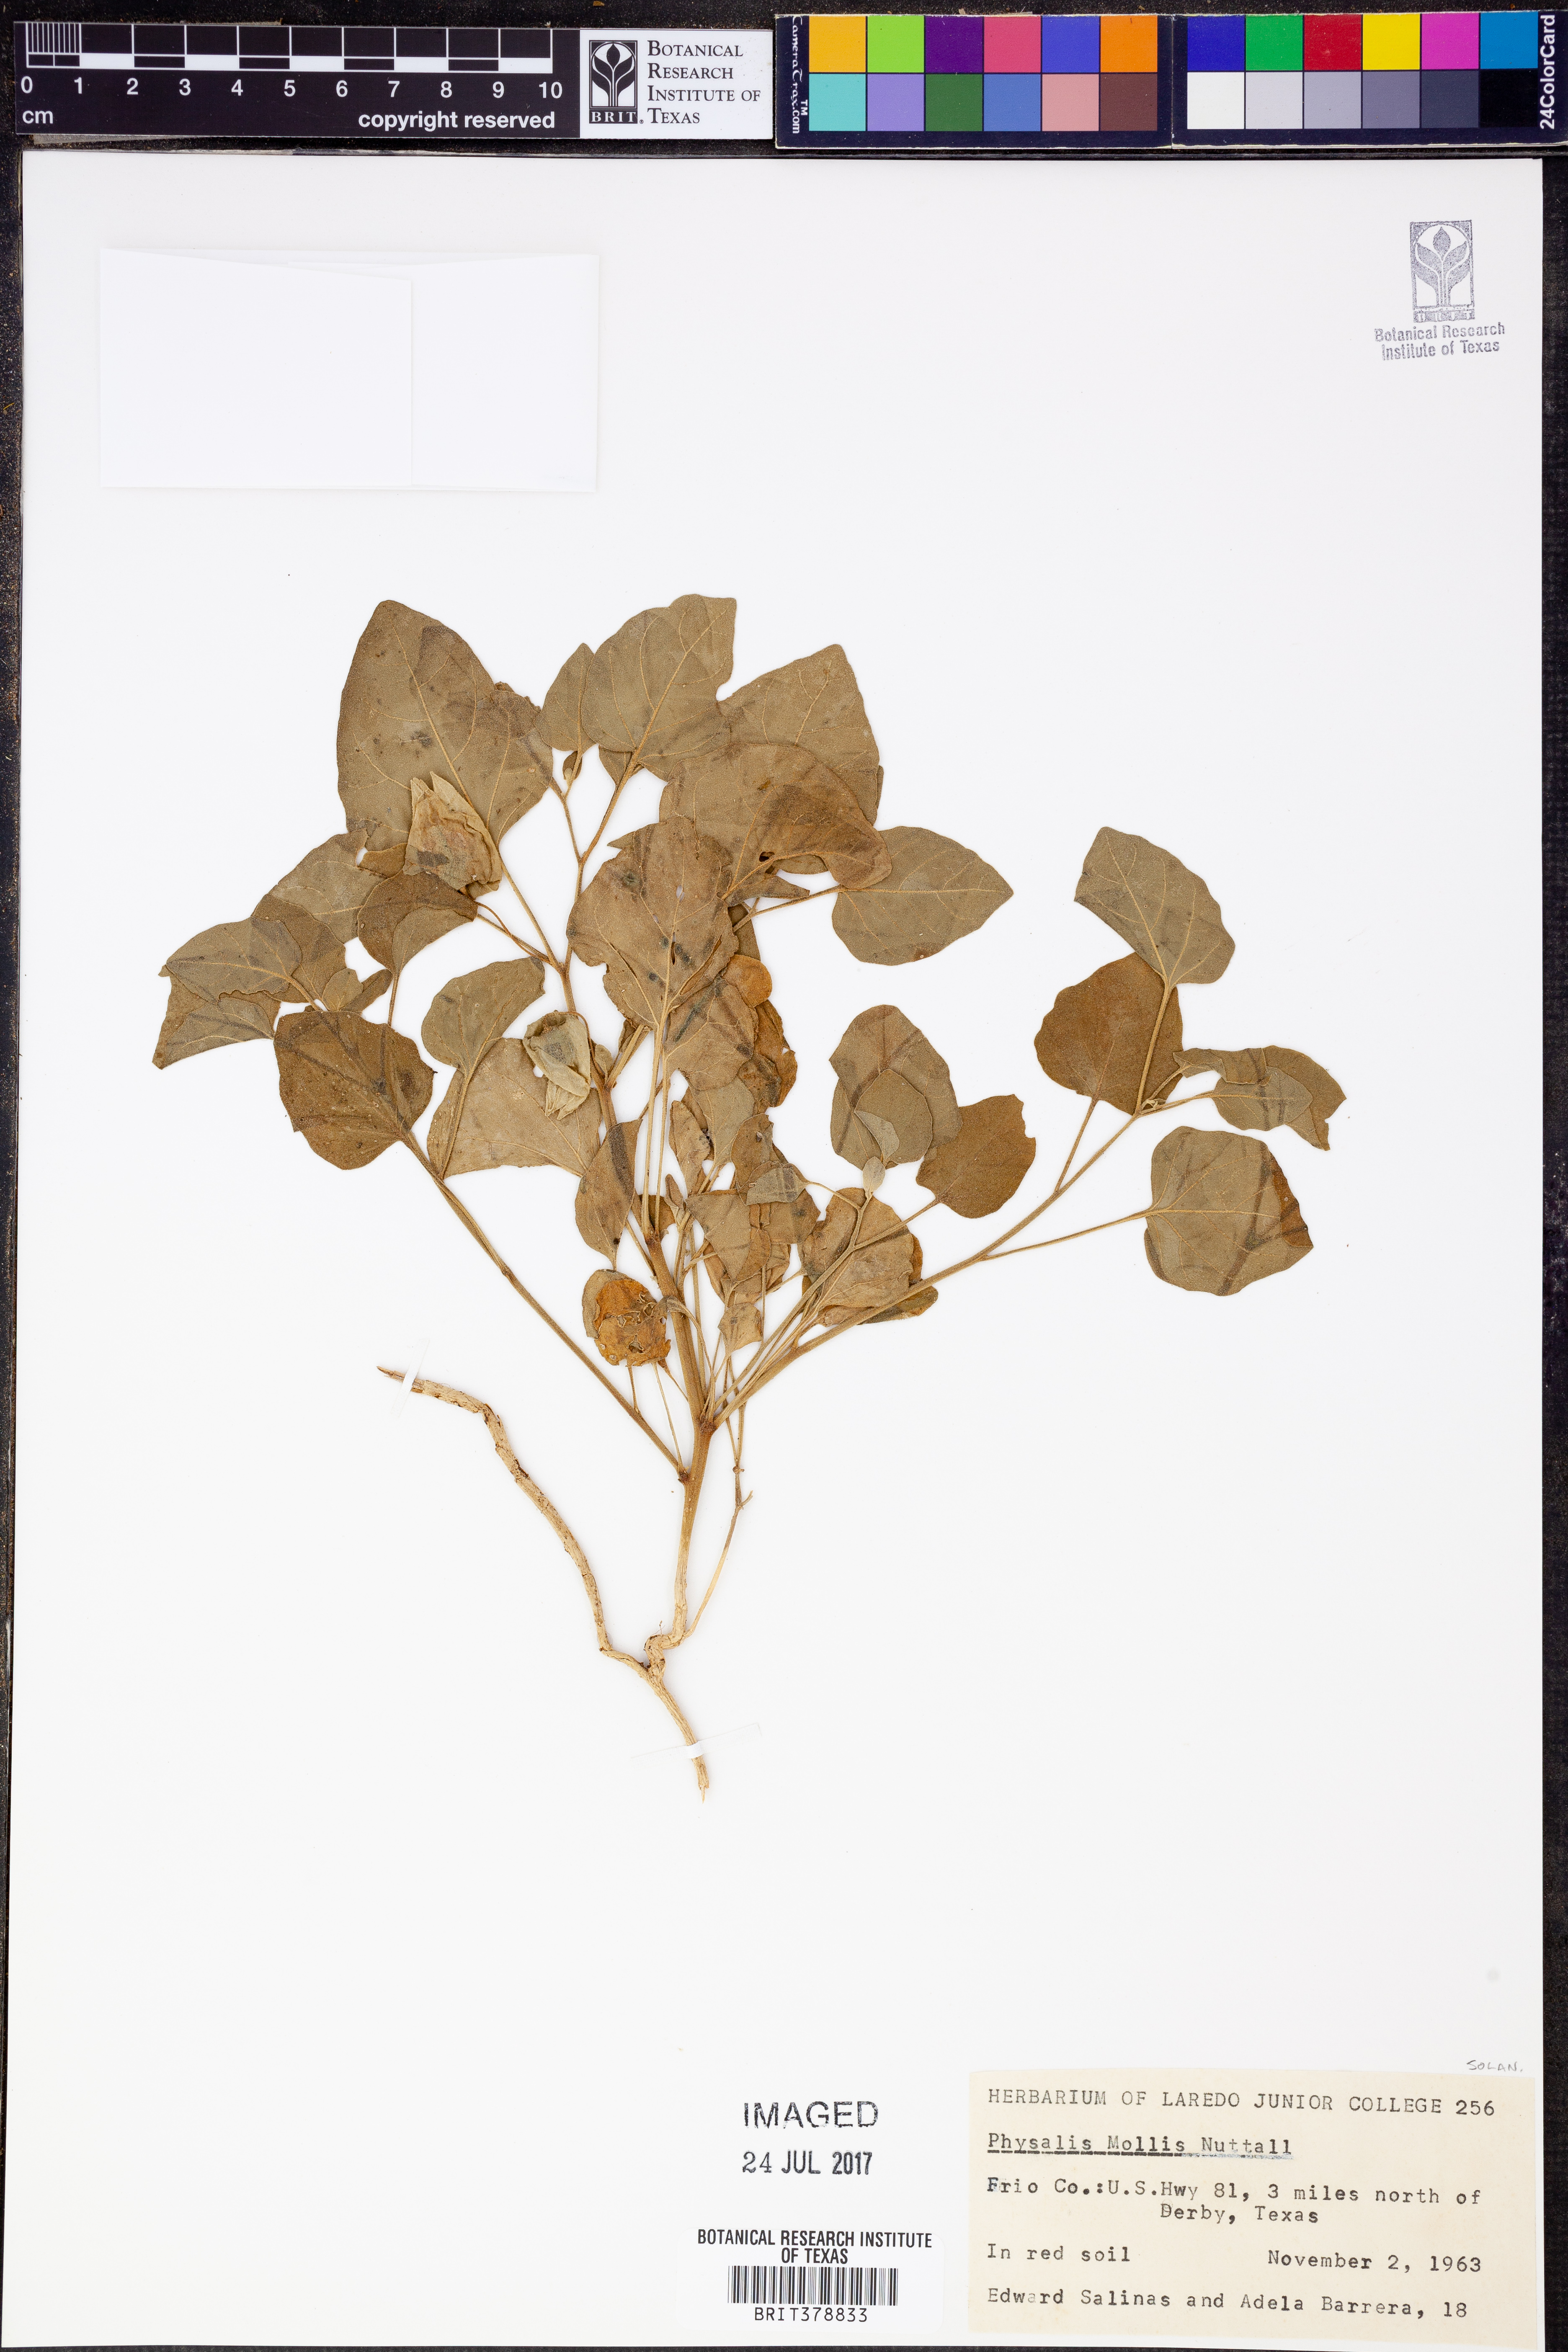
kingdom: Plantae
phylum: Tracheophyta
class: Magnoliopsida
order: Solanales
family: Solanaceae
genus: Physalis
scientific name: Physalis mollis
